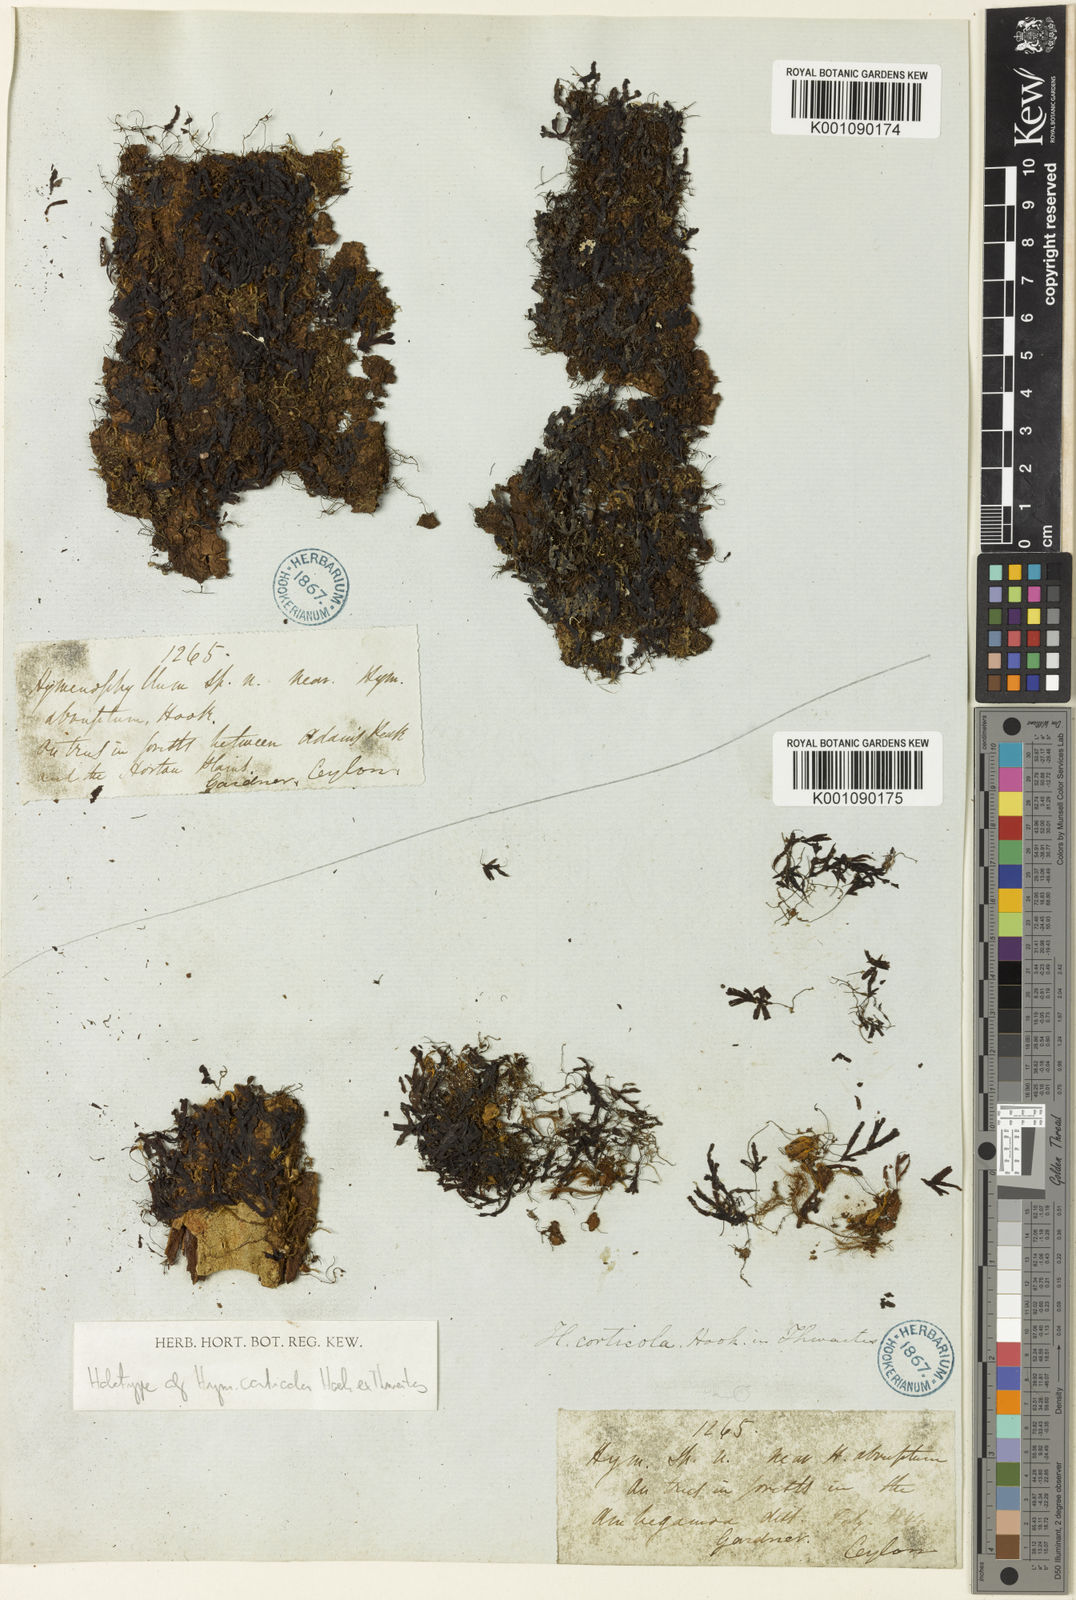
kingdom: Plantae
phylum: Tracheophyta
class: Polypodiopsida
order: Hymenophyllales
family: Hymenophyllaceae
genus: Hymenophyllum
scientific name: Hymenophyllum nitidulum
